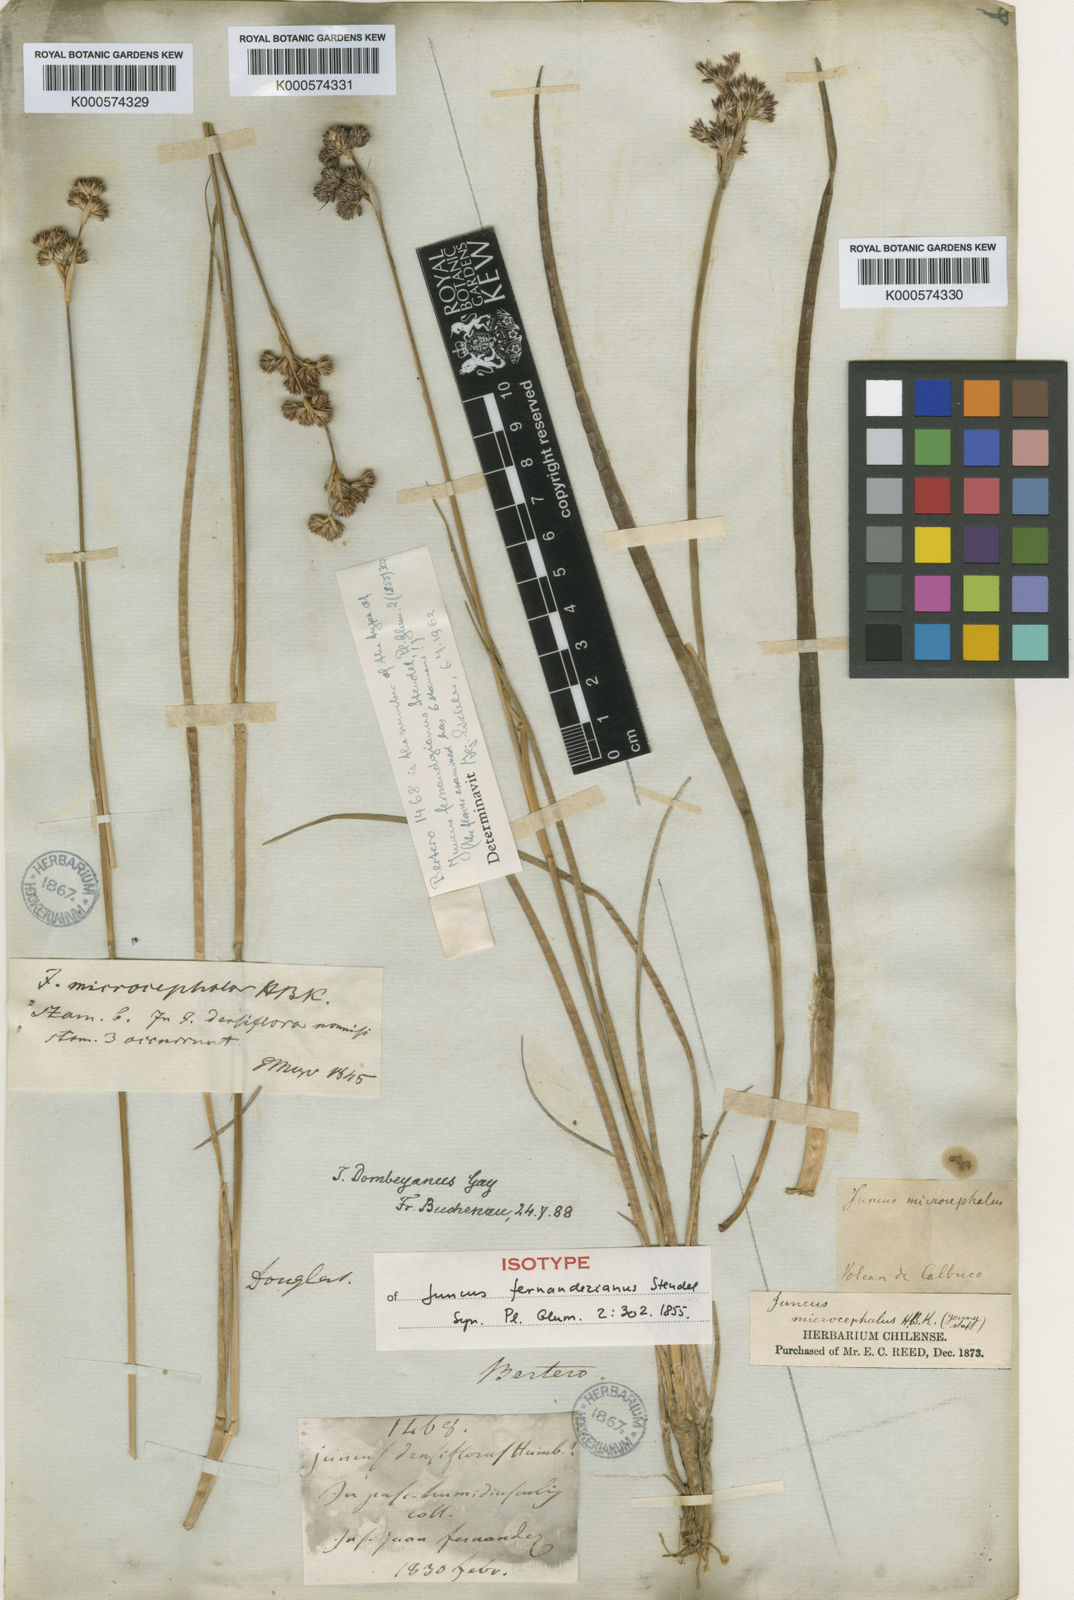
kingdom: Plantae
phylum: Tracheophyta
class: Liliopsida
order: Poales
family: Juncaceae
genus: Juncus
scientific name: Juncus pallescens
